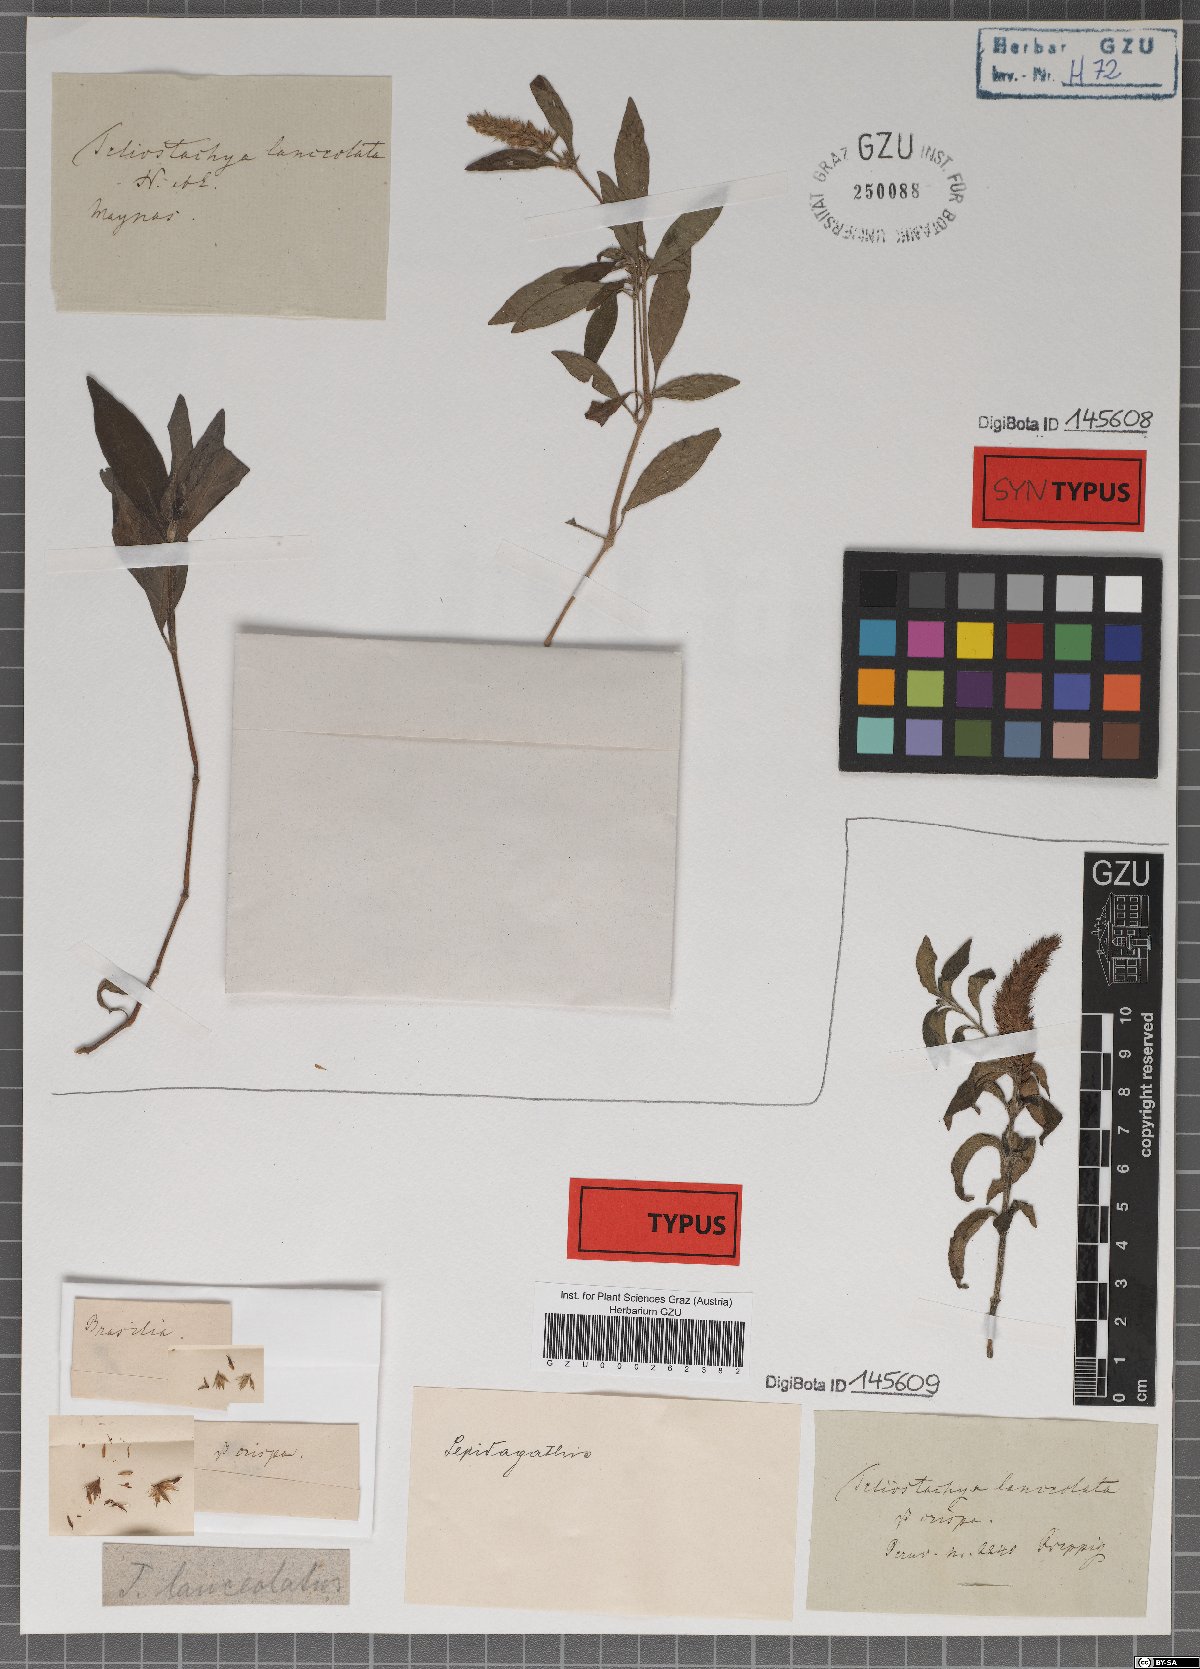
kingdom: Plantae
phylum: Tracheophyta
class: Magnoliopsida
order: Lamiales
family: Acanthaceae
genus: Lepidagathis
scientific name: Lepidagathis alopecuroidea
